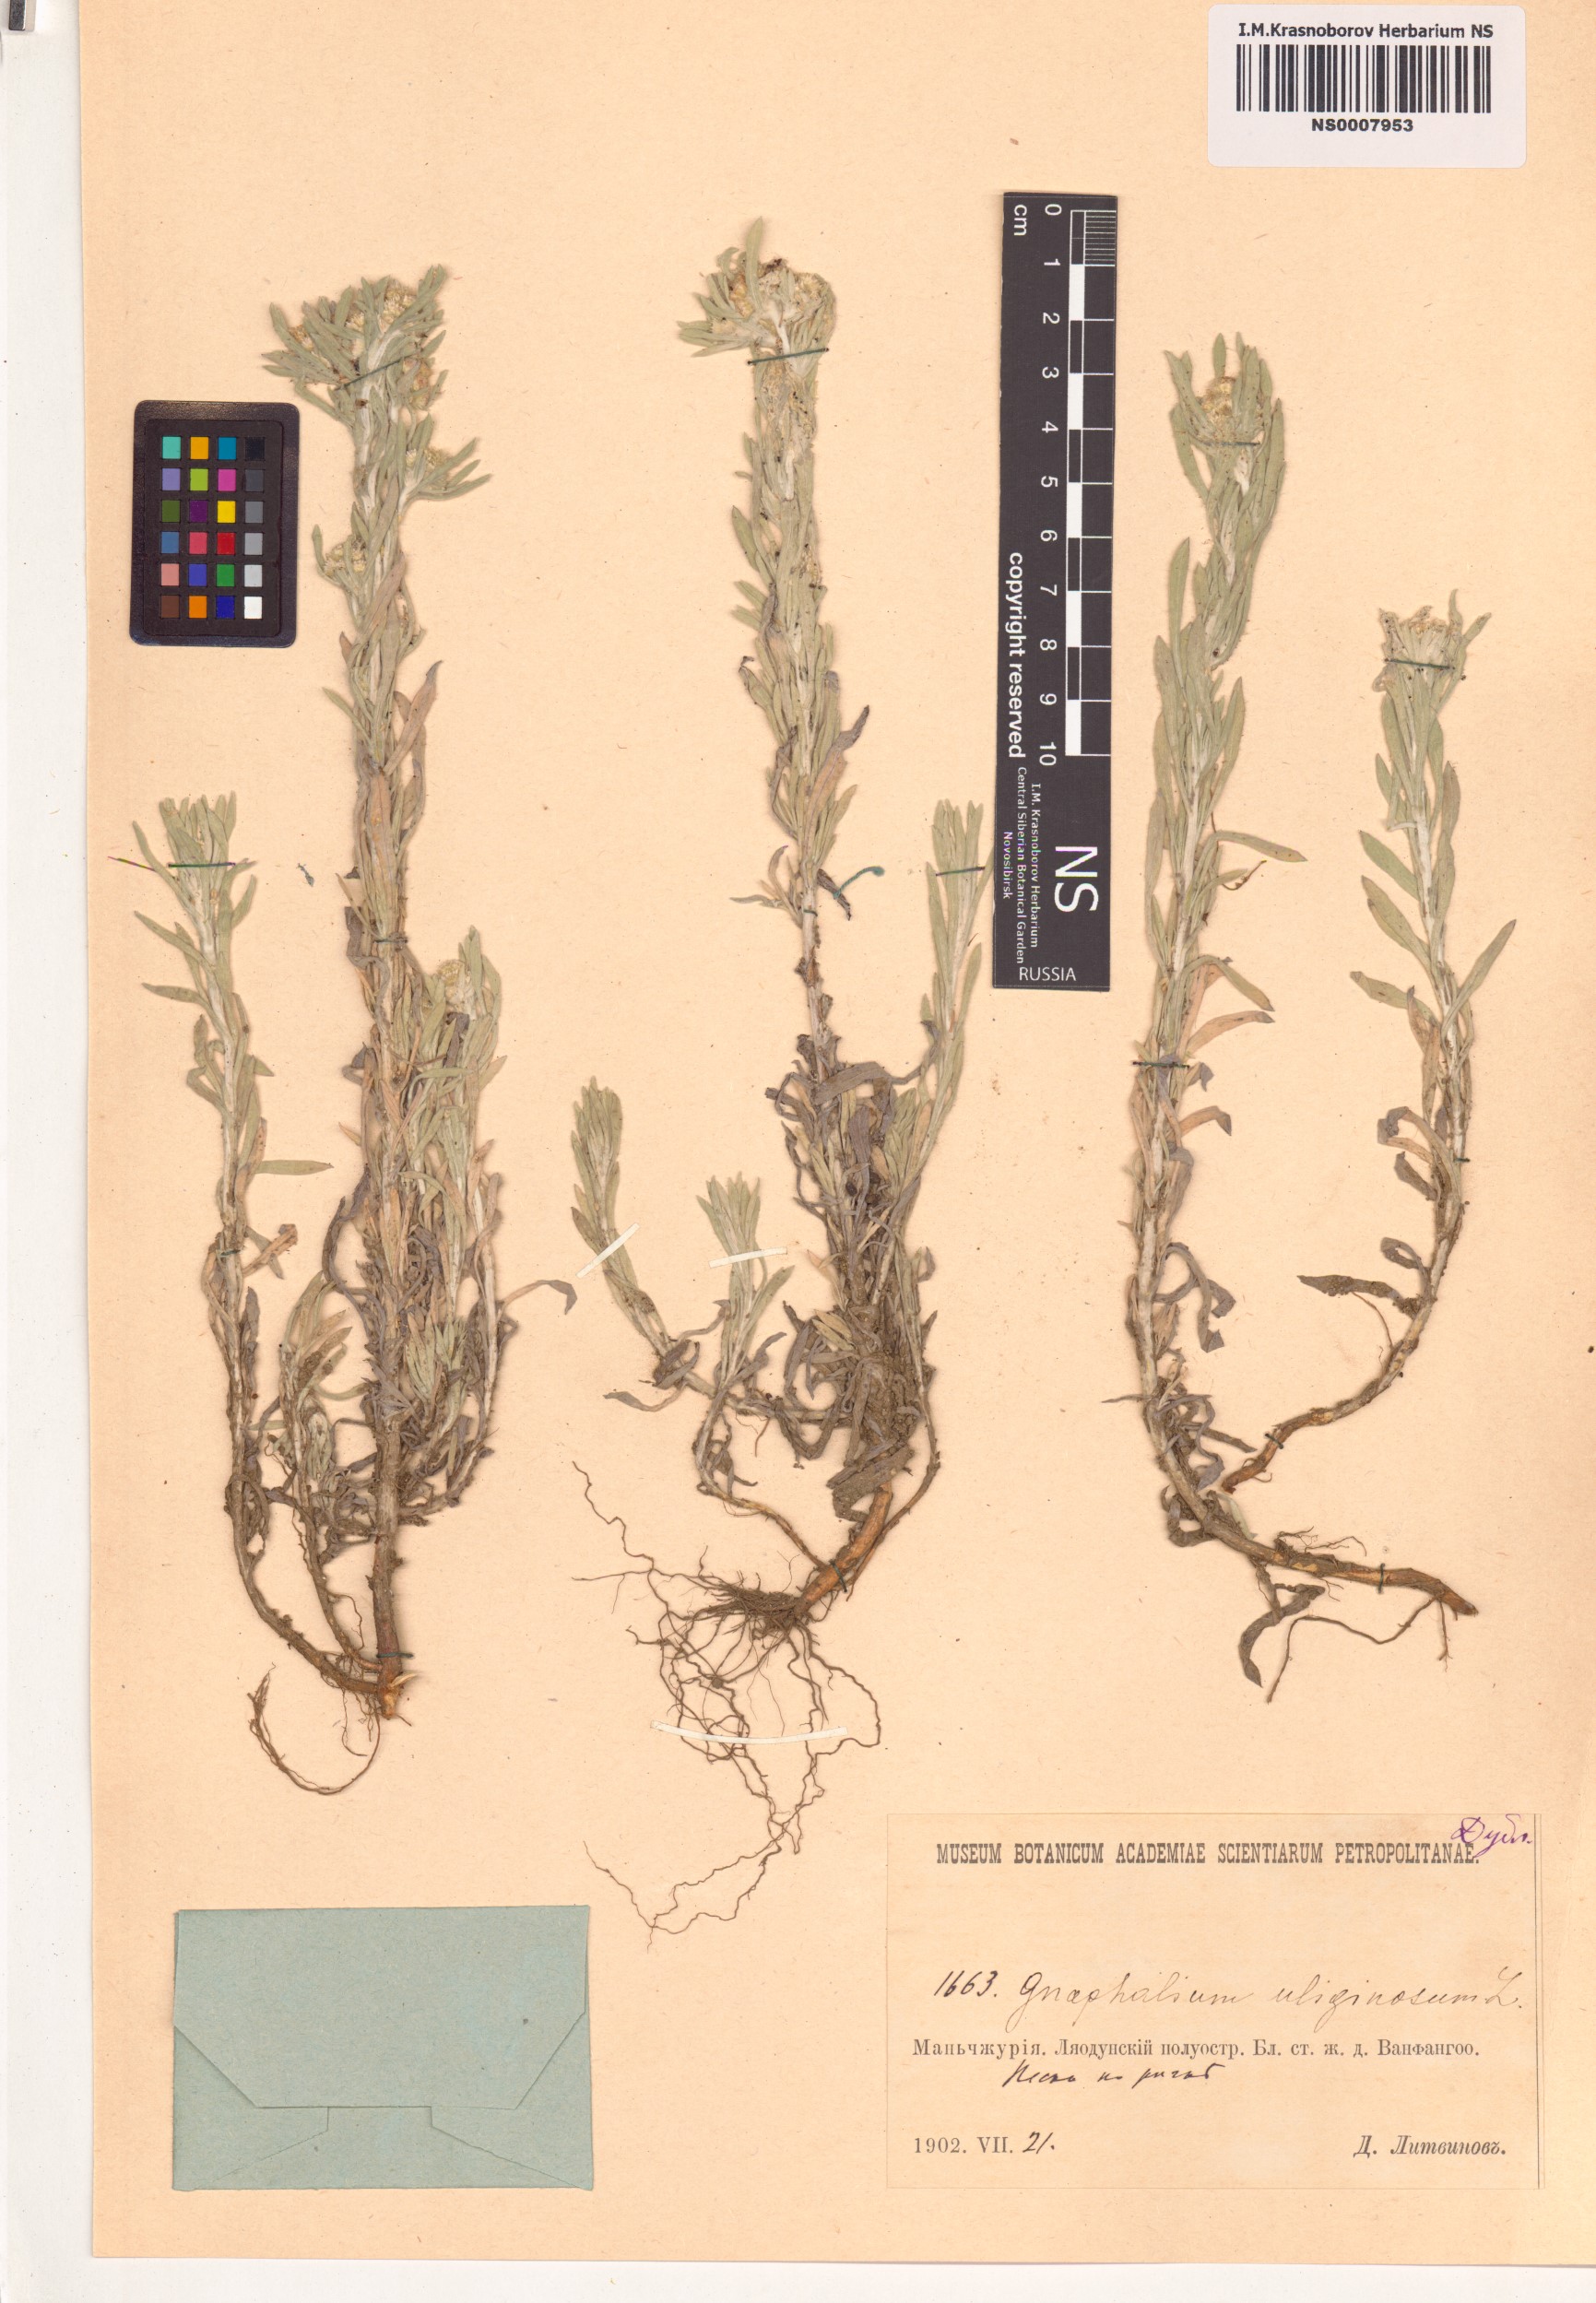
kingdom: Plantae
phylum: Tracheophyta
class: Magnoliopsida
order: Asterales
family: Asteraceae
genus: Gnaphalium
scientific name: Gnaphalium uliginosum
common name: Marsh cudweed
